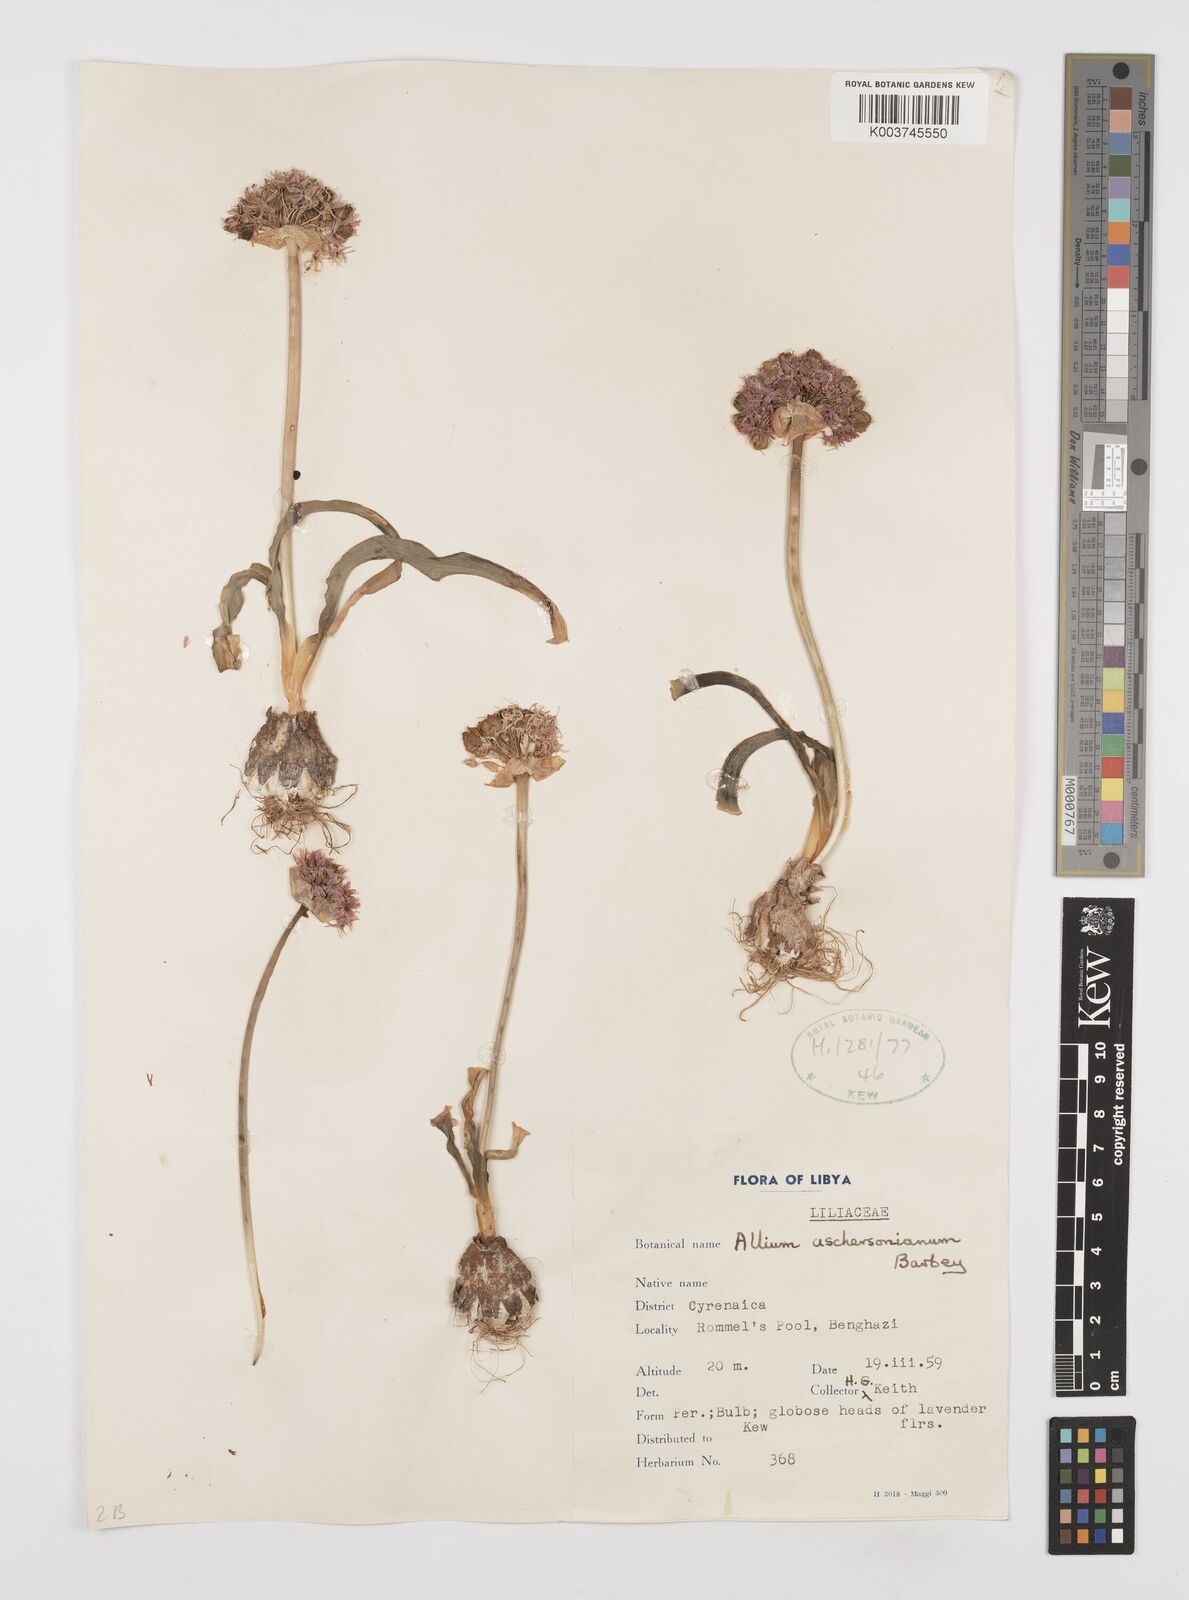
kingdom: Plantae
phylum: Tracheophyta
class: Liliopsida
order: Asparagales
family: Amaryllidaceae
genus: Allium
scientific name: Allium orientale
